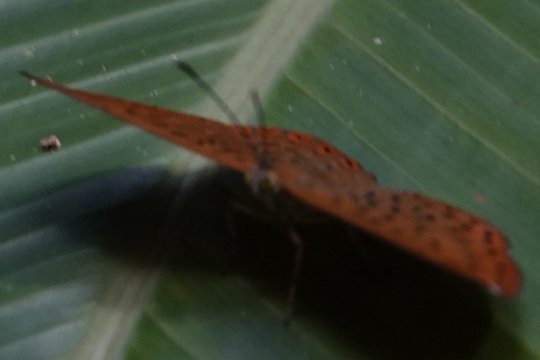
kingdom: Animalia
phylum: Arthropoda
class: Insecta
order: Lepidoptera
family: Riodinidae
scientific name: Riodinidae
